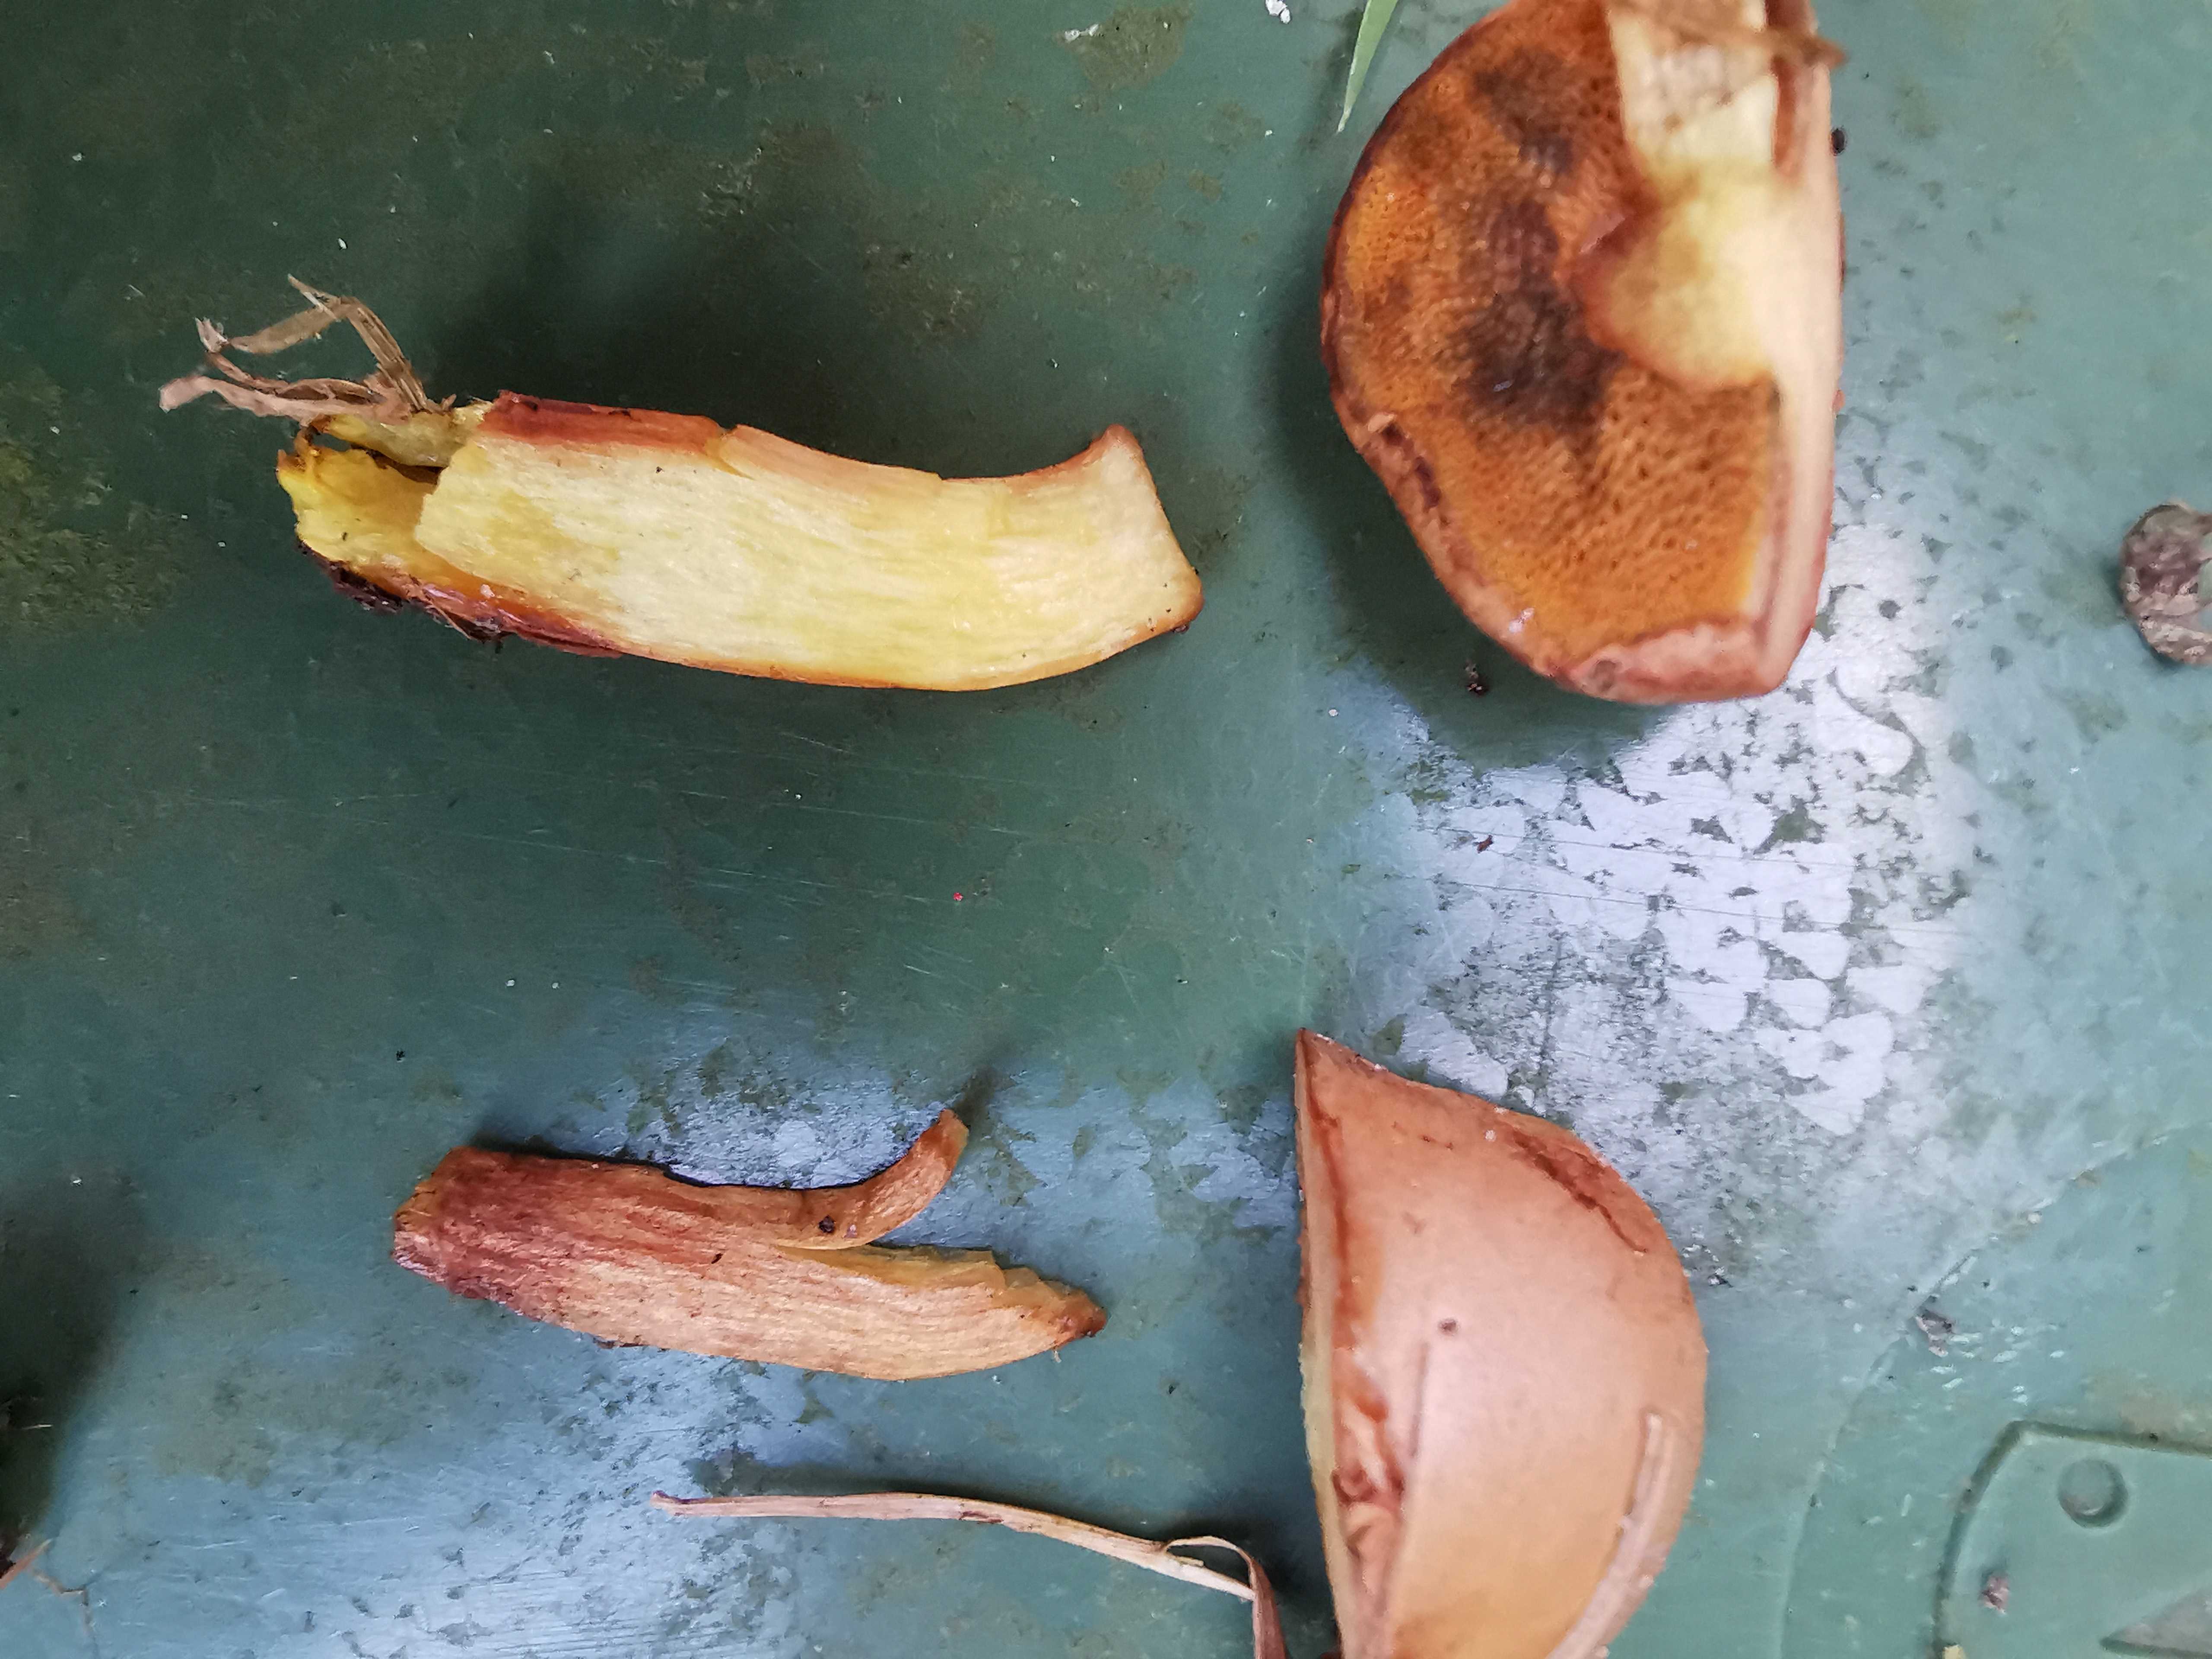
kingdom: Fungi
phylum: Basidiomycota
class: Agaricomycetes
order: Boletales
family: Boletaceae
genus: Chalciporus
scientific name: Chalciporus piperatus
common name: peberrørhat
